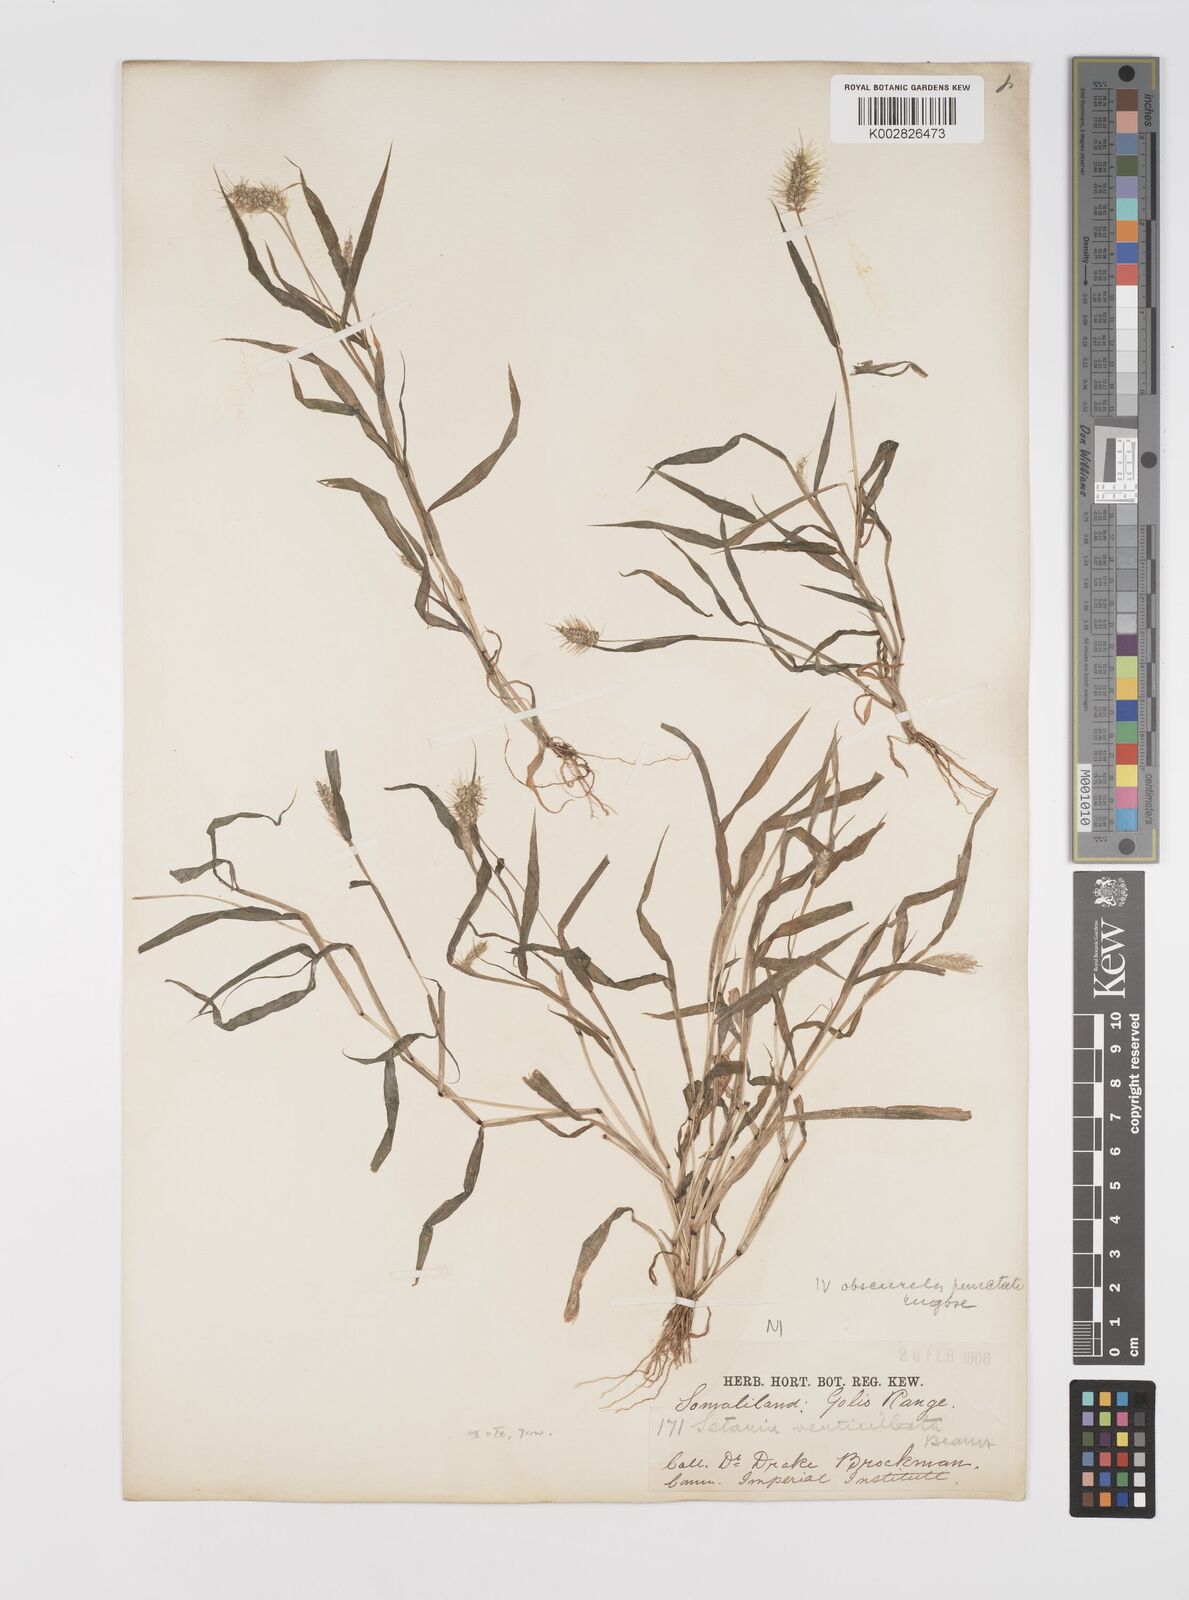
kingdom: Plantae
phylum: Tracheophyta
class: Liliopsida
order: Poales
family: Poaceae
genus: Setaria
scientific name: Setaria verticillata
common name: Hooked bristlegrass
